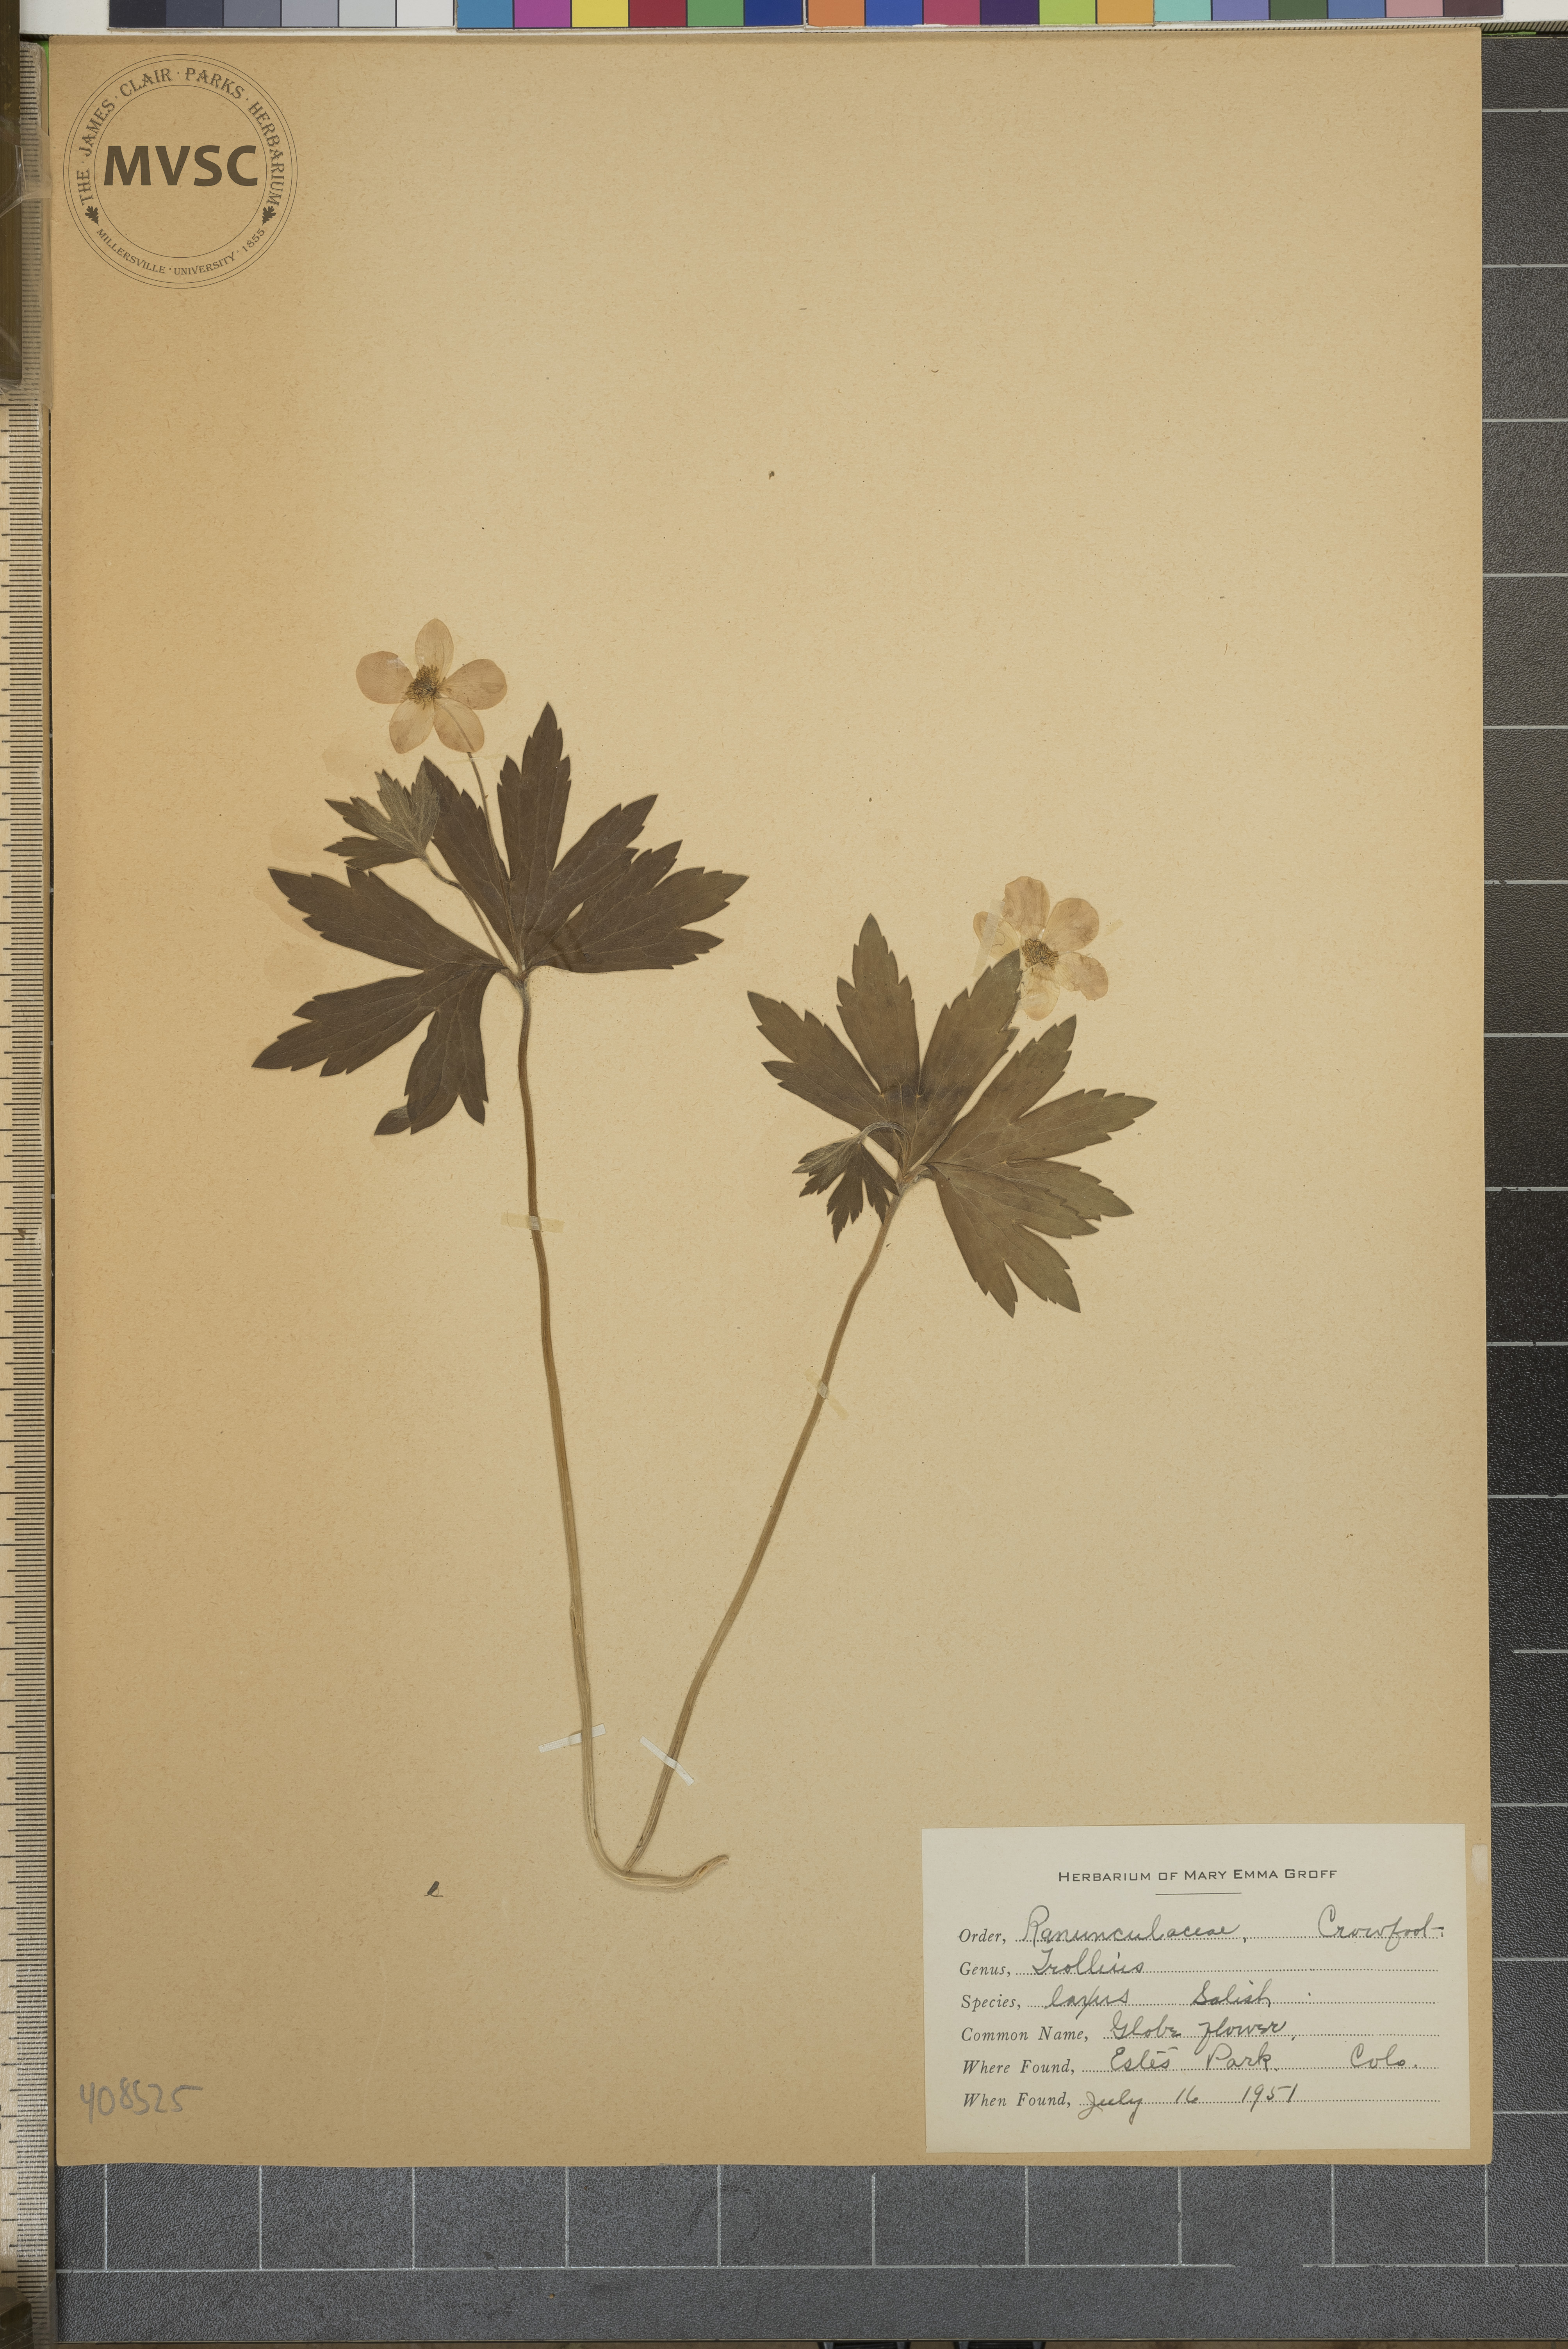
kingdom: Plantae
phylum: Tracheophyta
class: Magnoliopsida
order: Ranunculales
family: Ranunculaceae
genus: Trollius
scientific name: Trollius laxus
